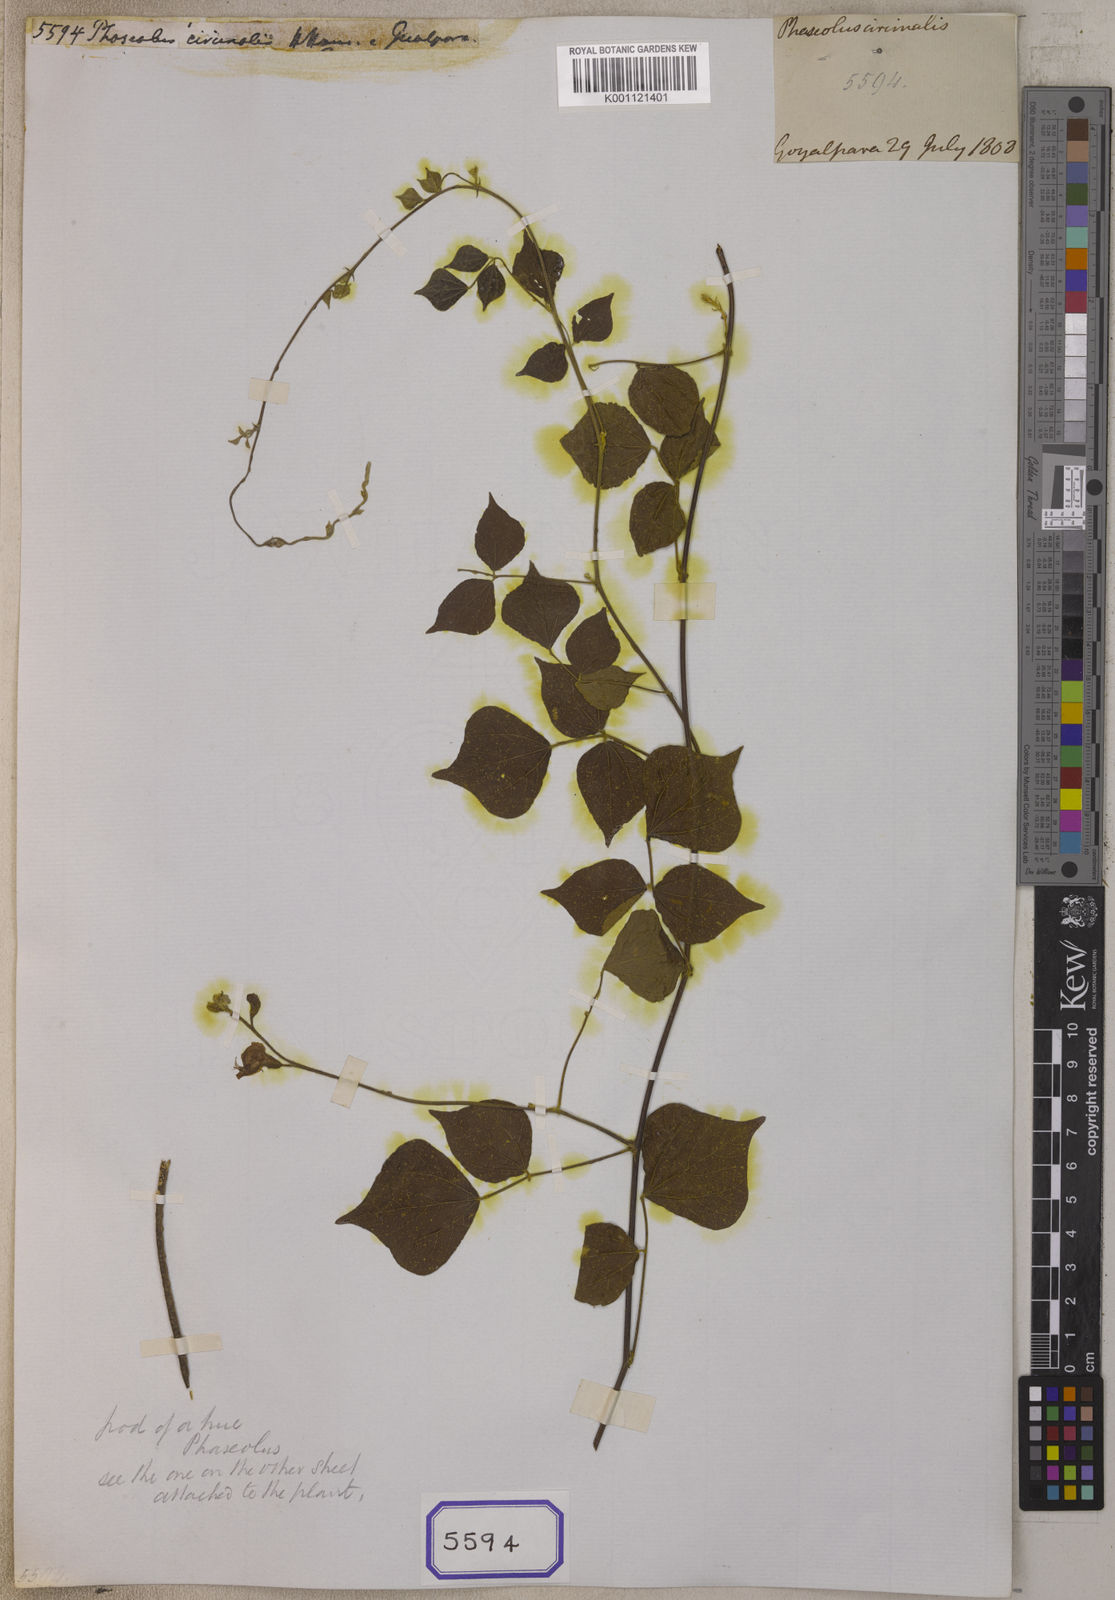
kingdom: Plantae
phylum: Tracheophyta
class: Magnoliopsida
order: Solanales
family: Solanaceae
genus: Nicotiana
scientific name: Nicotiana tabacum
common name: Tobacco
